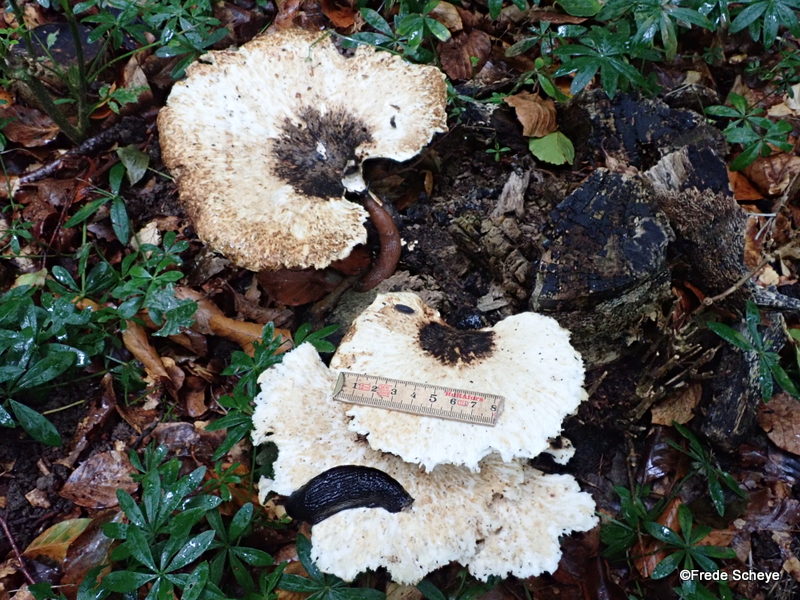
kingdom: Fungi
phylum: Basidiomycota
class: Agaricomycetes
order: Polyporales
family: Polyporaceae
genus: Cerioporus
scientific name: Cerioporus squamosus
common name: skællet stilkporesvamp
